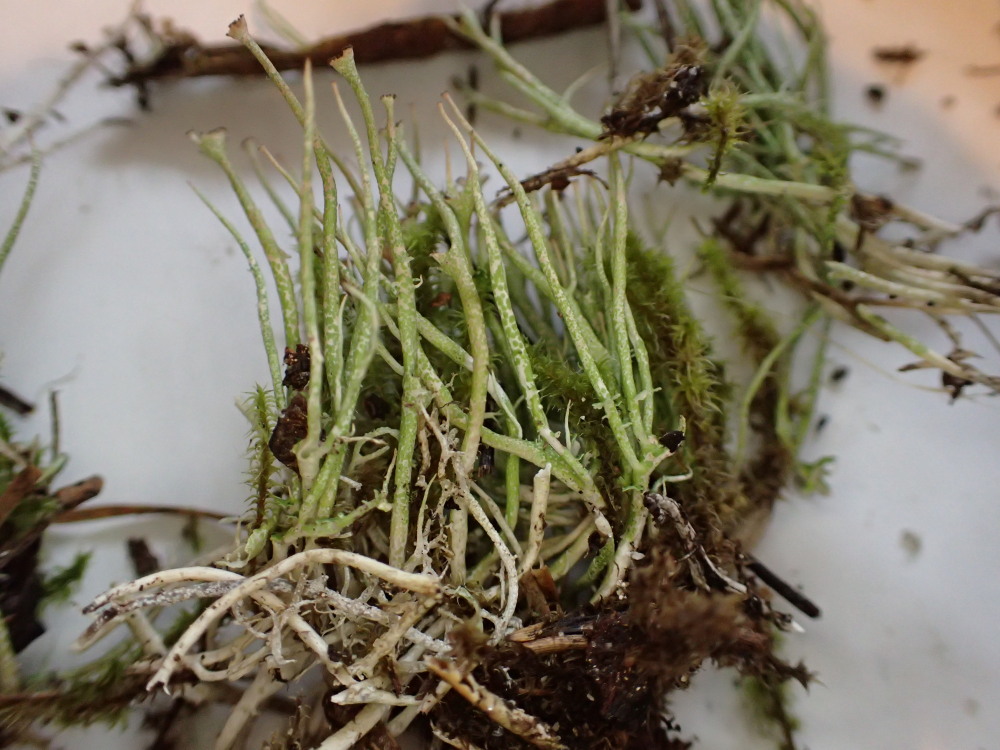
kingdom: Fungi
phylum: Ascomycota
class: Lecanoromycetes
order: Lecanorales
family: Cladoniaceae
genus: Cladonia
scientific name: Cladonia gracilis
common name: slank bægerlav
